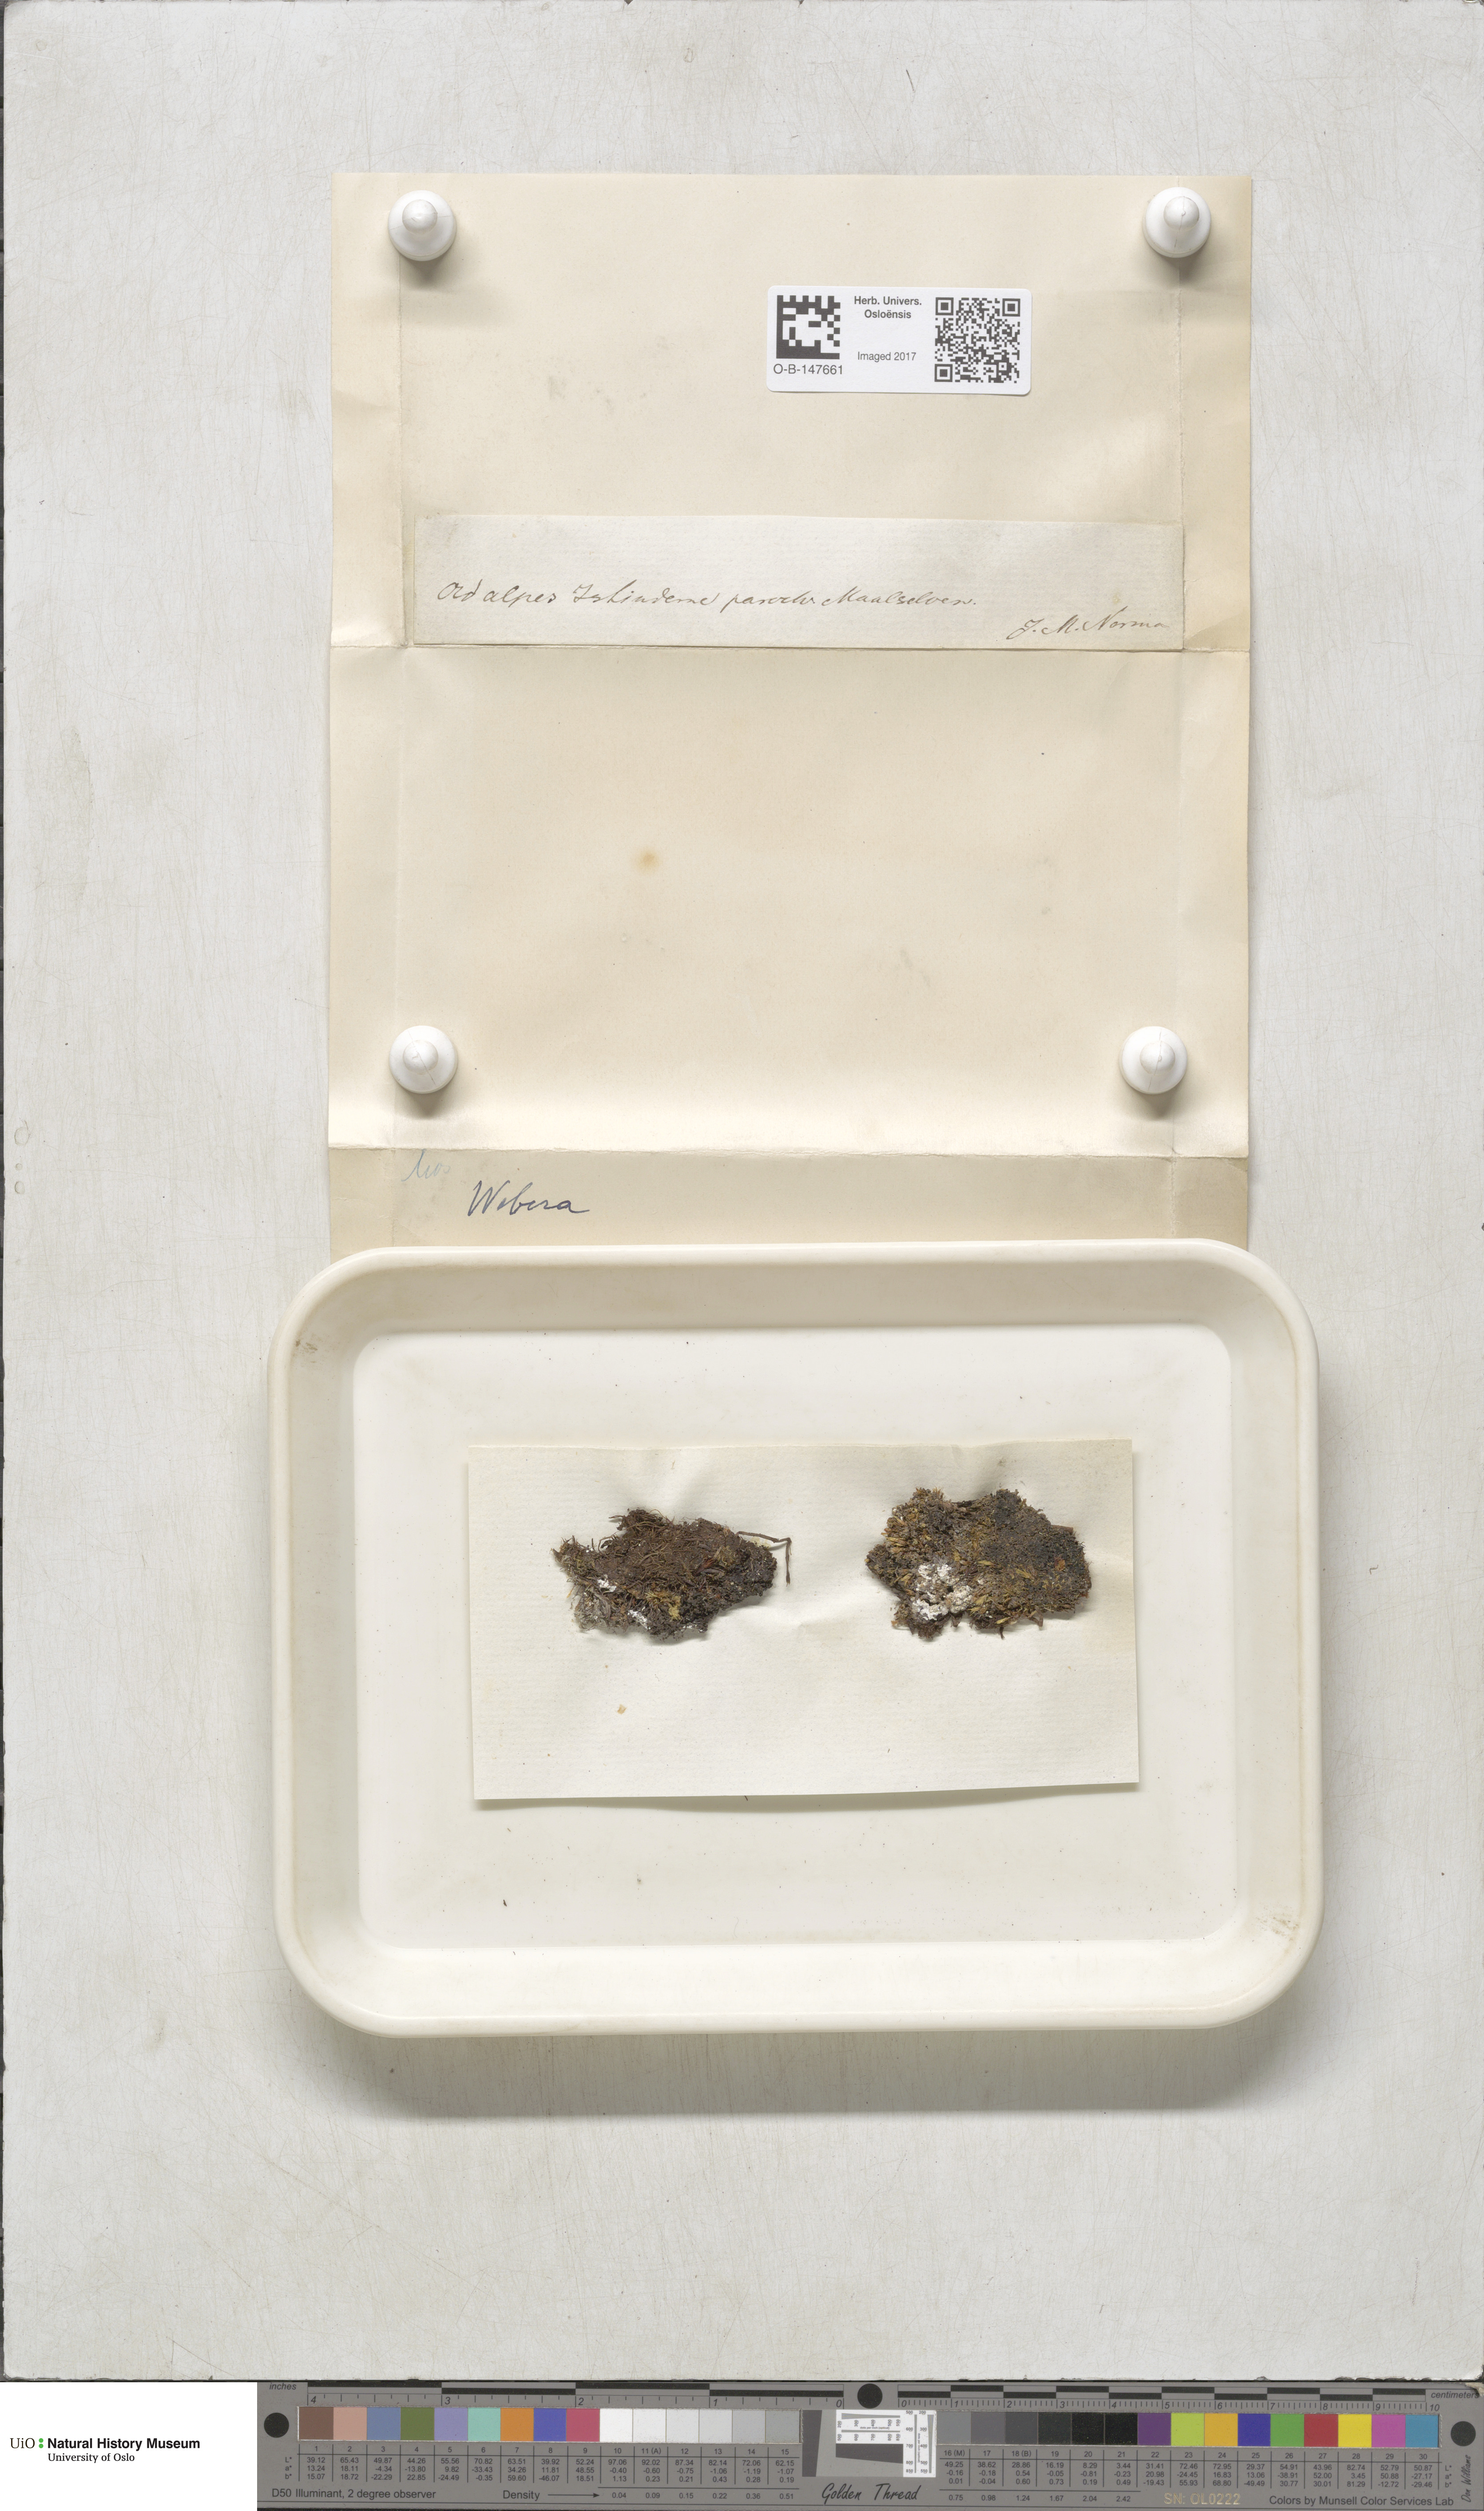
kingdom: Plantae
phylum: Bryophyta
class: Bryopsida
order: Bryales
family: Mniaceae
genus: Pohlia
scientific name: Pohlia
